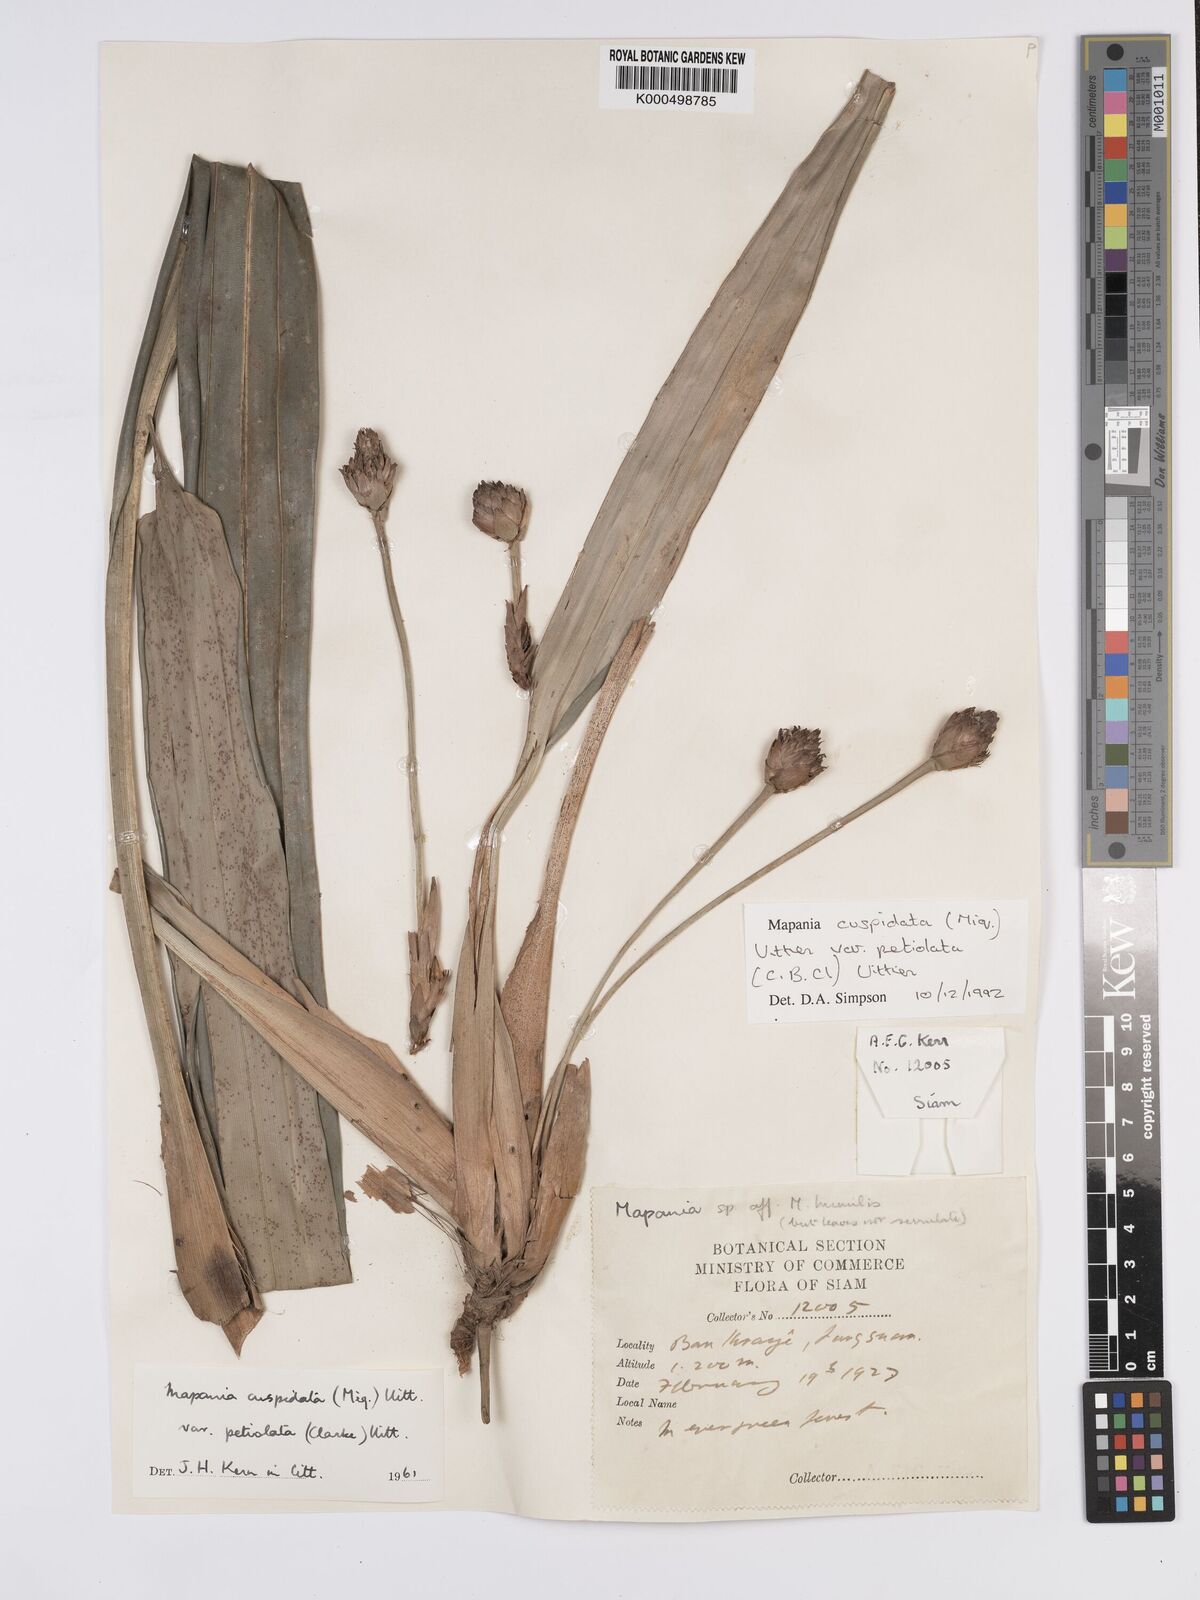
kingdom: Plantae
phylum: Tracheophyta
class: Liliopsida
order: Poales
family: Cyperaceae
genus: Mapania
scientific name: Mapania cuspidata
